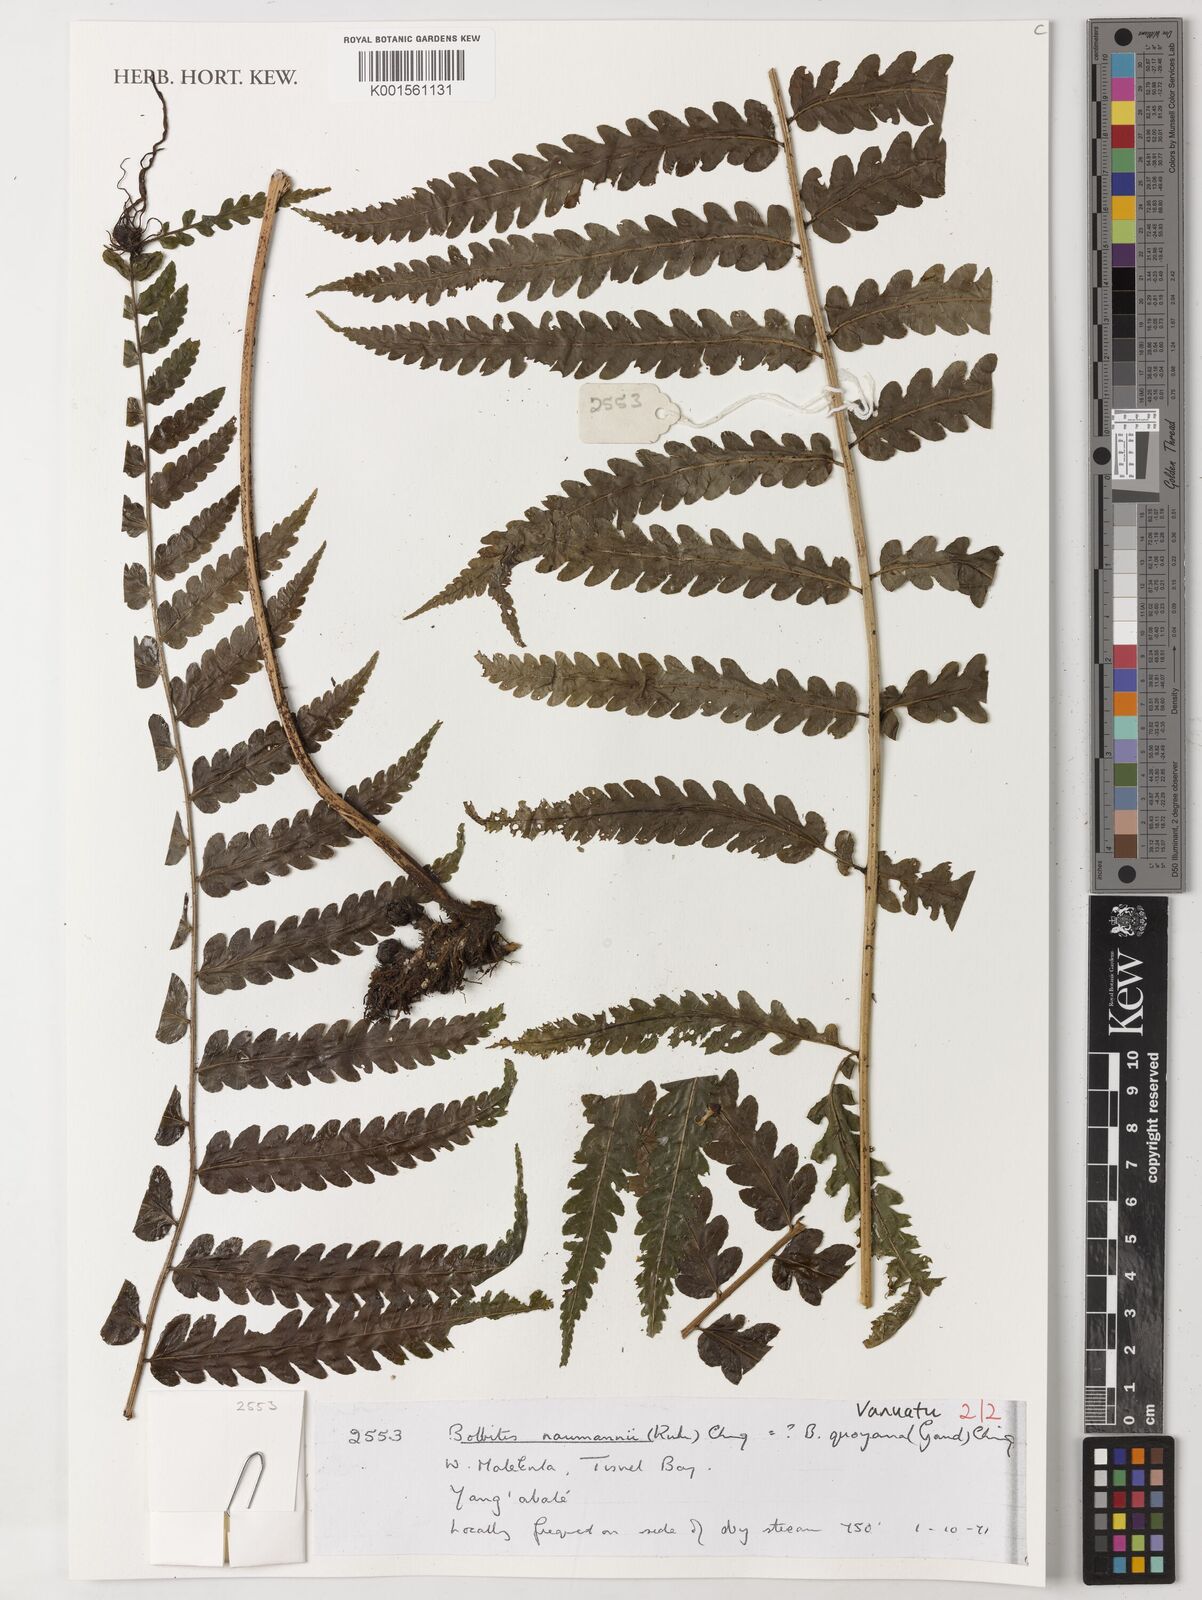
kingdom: Plantae
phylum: Tracheophyta
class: Polypodiopsida
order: Polypodiales
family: Dryopteridaceae
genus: Bolbitis
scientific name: Bolbitis quoyana
